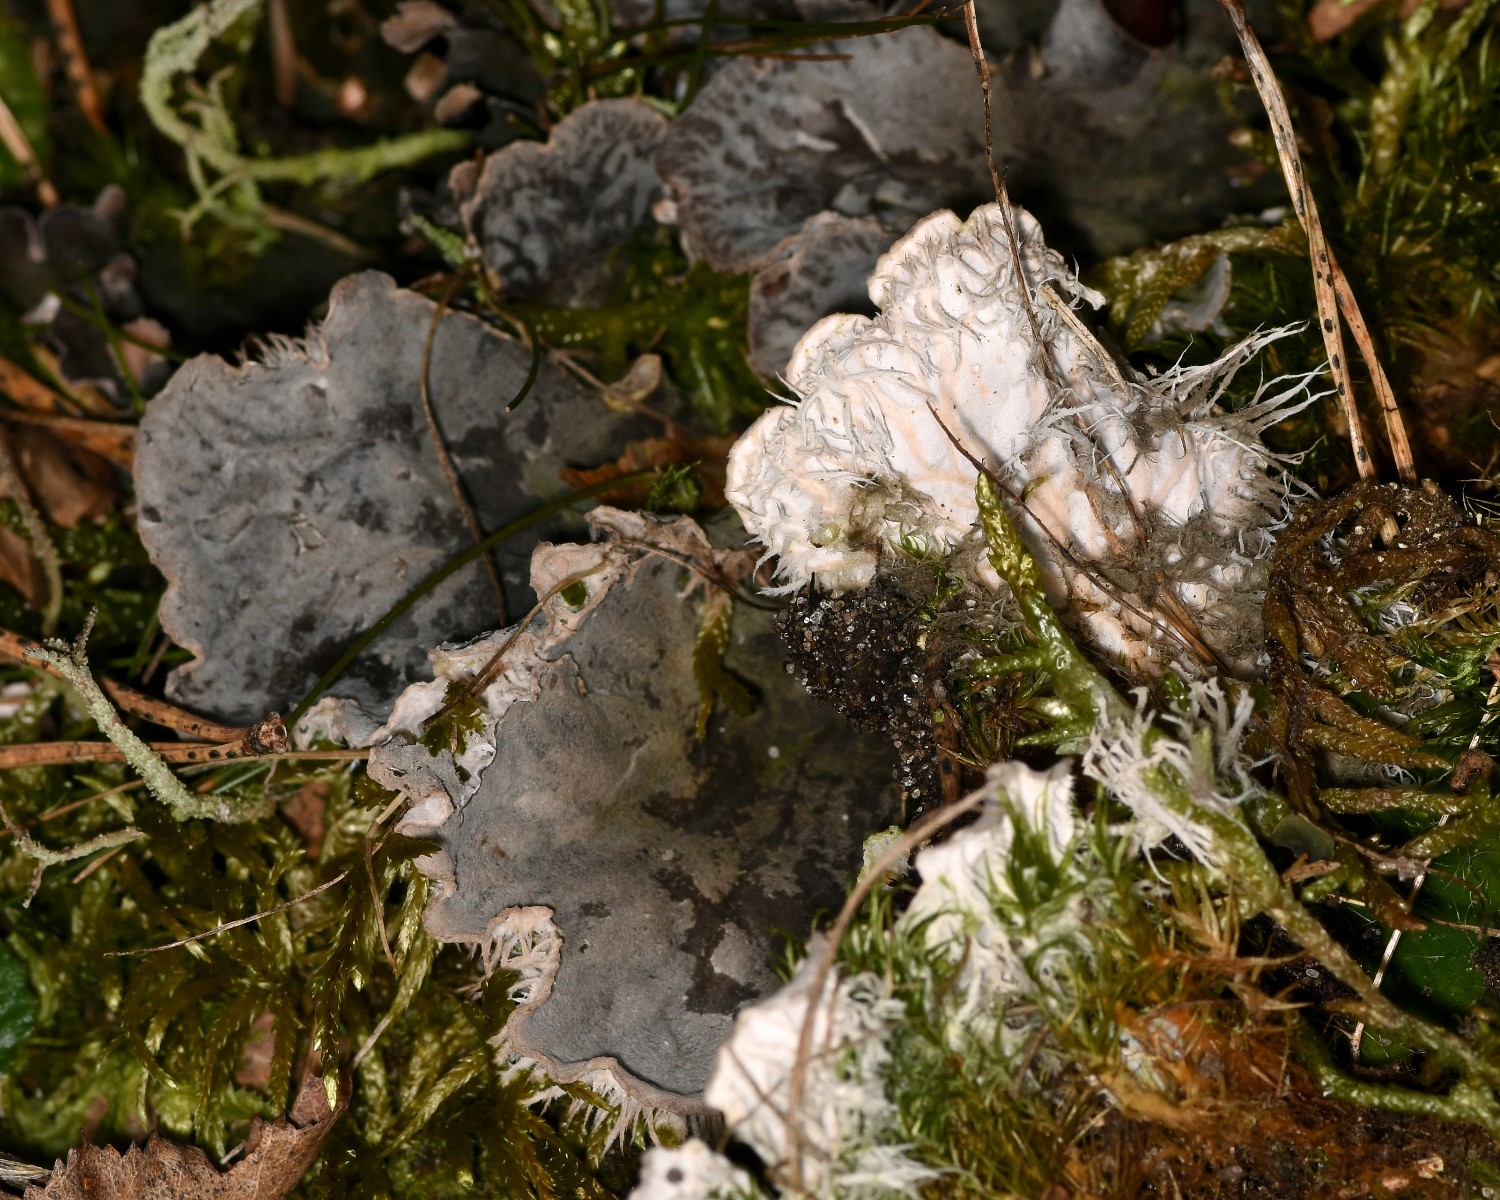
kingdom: Fungi
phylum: Ascomycota
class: Lecanoromycetes
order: Peltigerales
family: Peltigeraceae
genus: Peltigera
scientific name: Peltigera membranacea
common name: tynd skjoldlav
